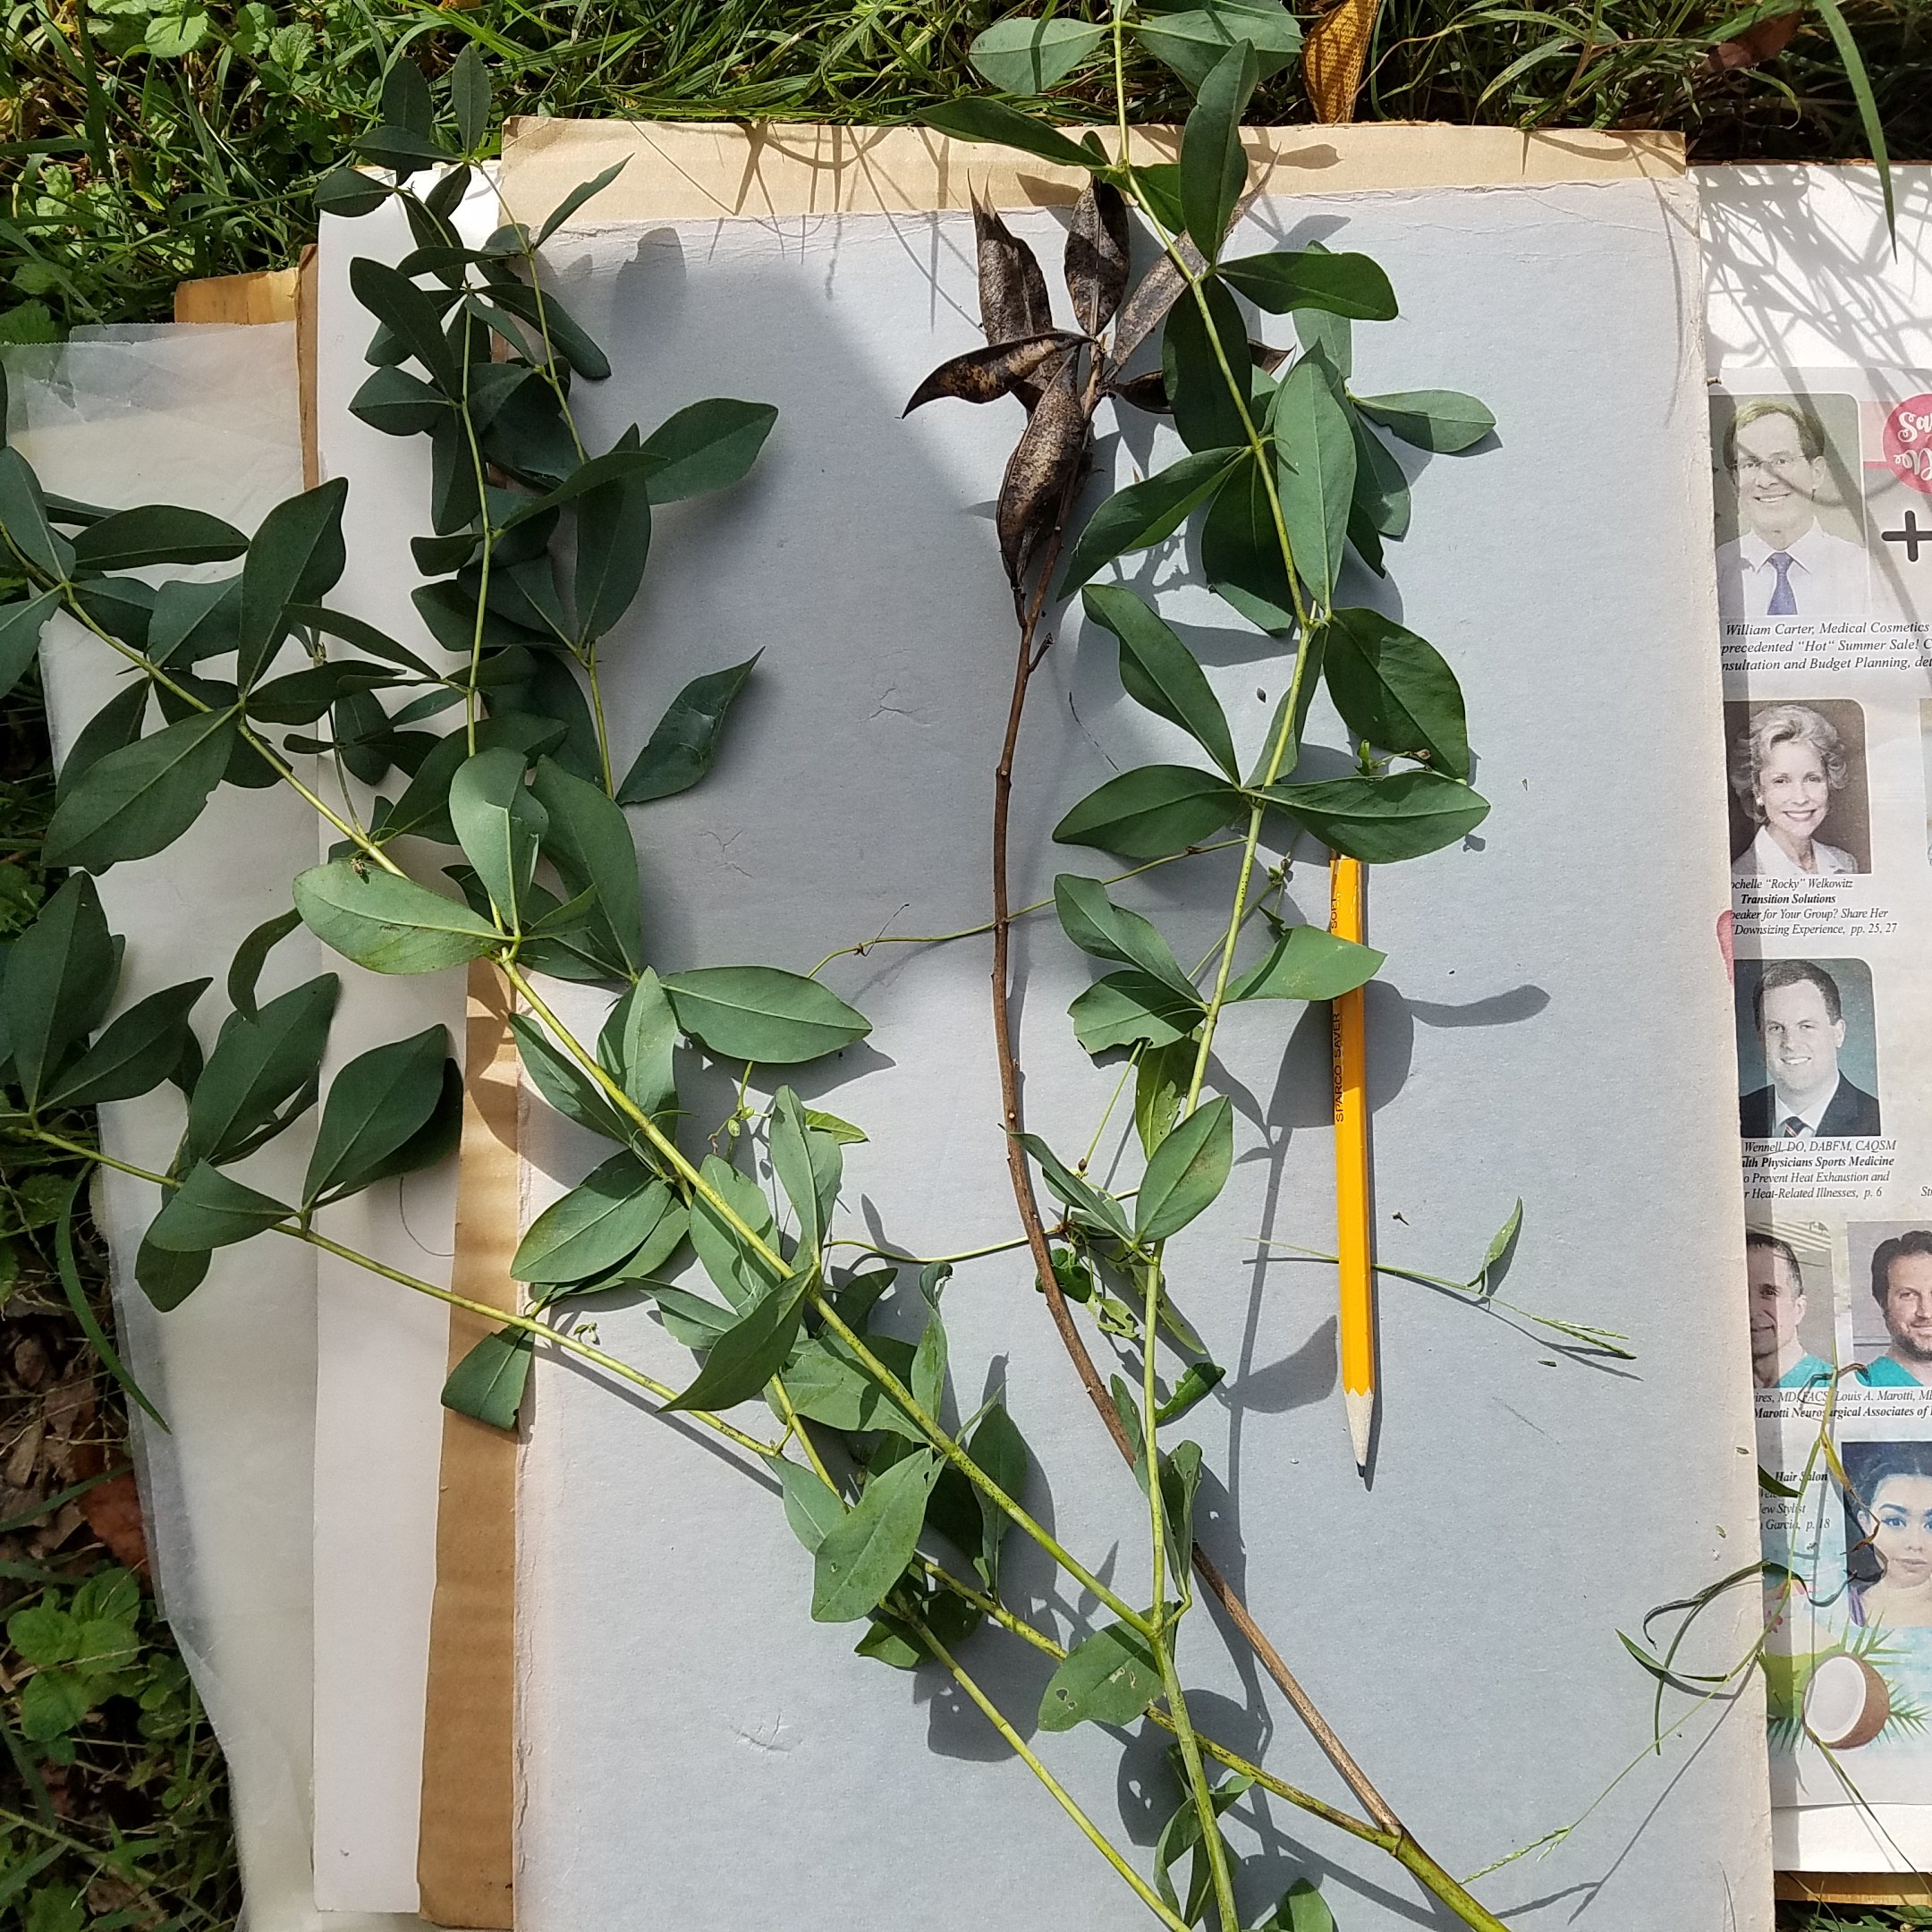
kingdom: Plantae
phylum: Tracheophyta
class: Magnoliopsida
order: Fabales
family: Fabaceae
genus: Baptisia
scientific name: Baptisia australis
